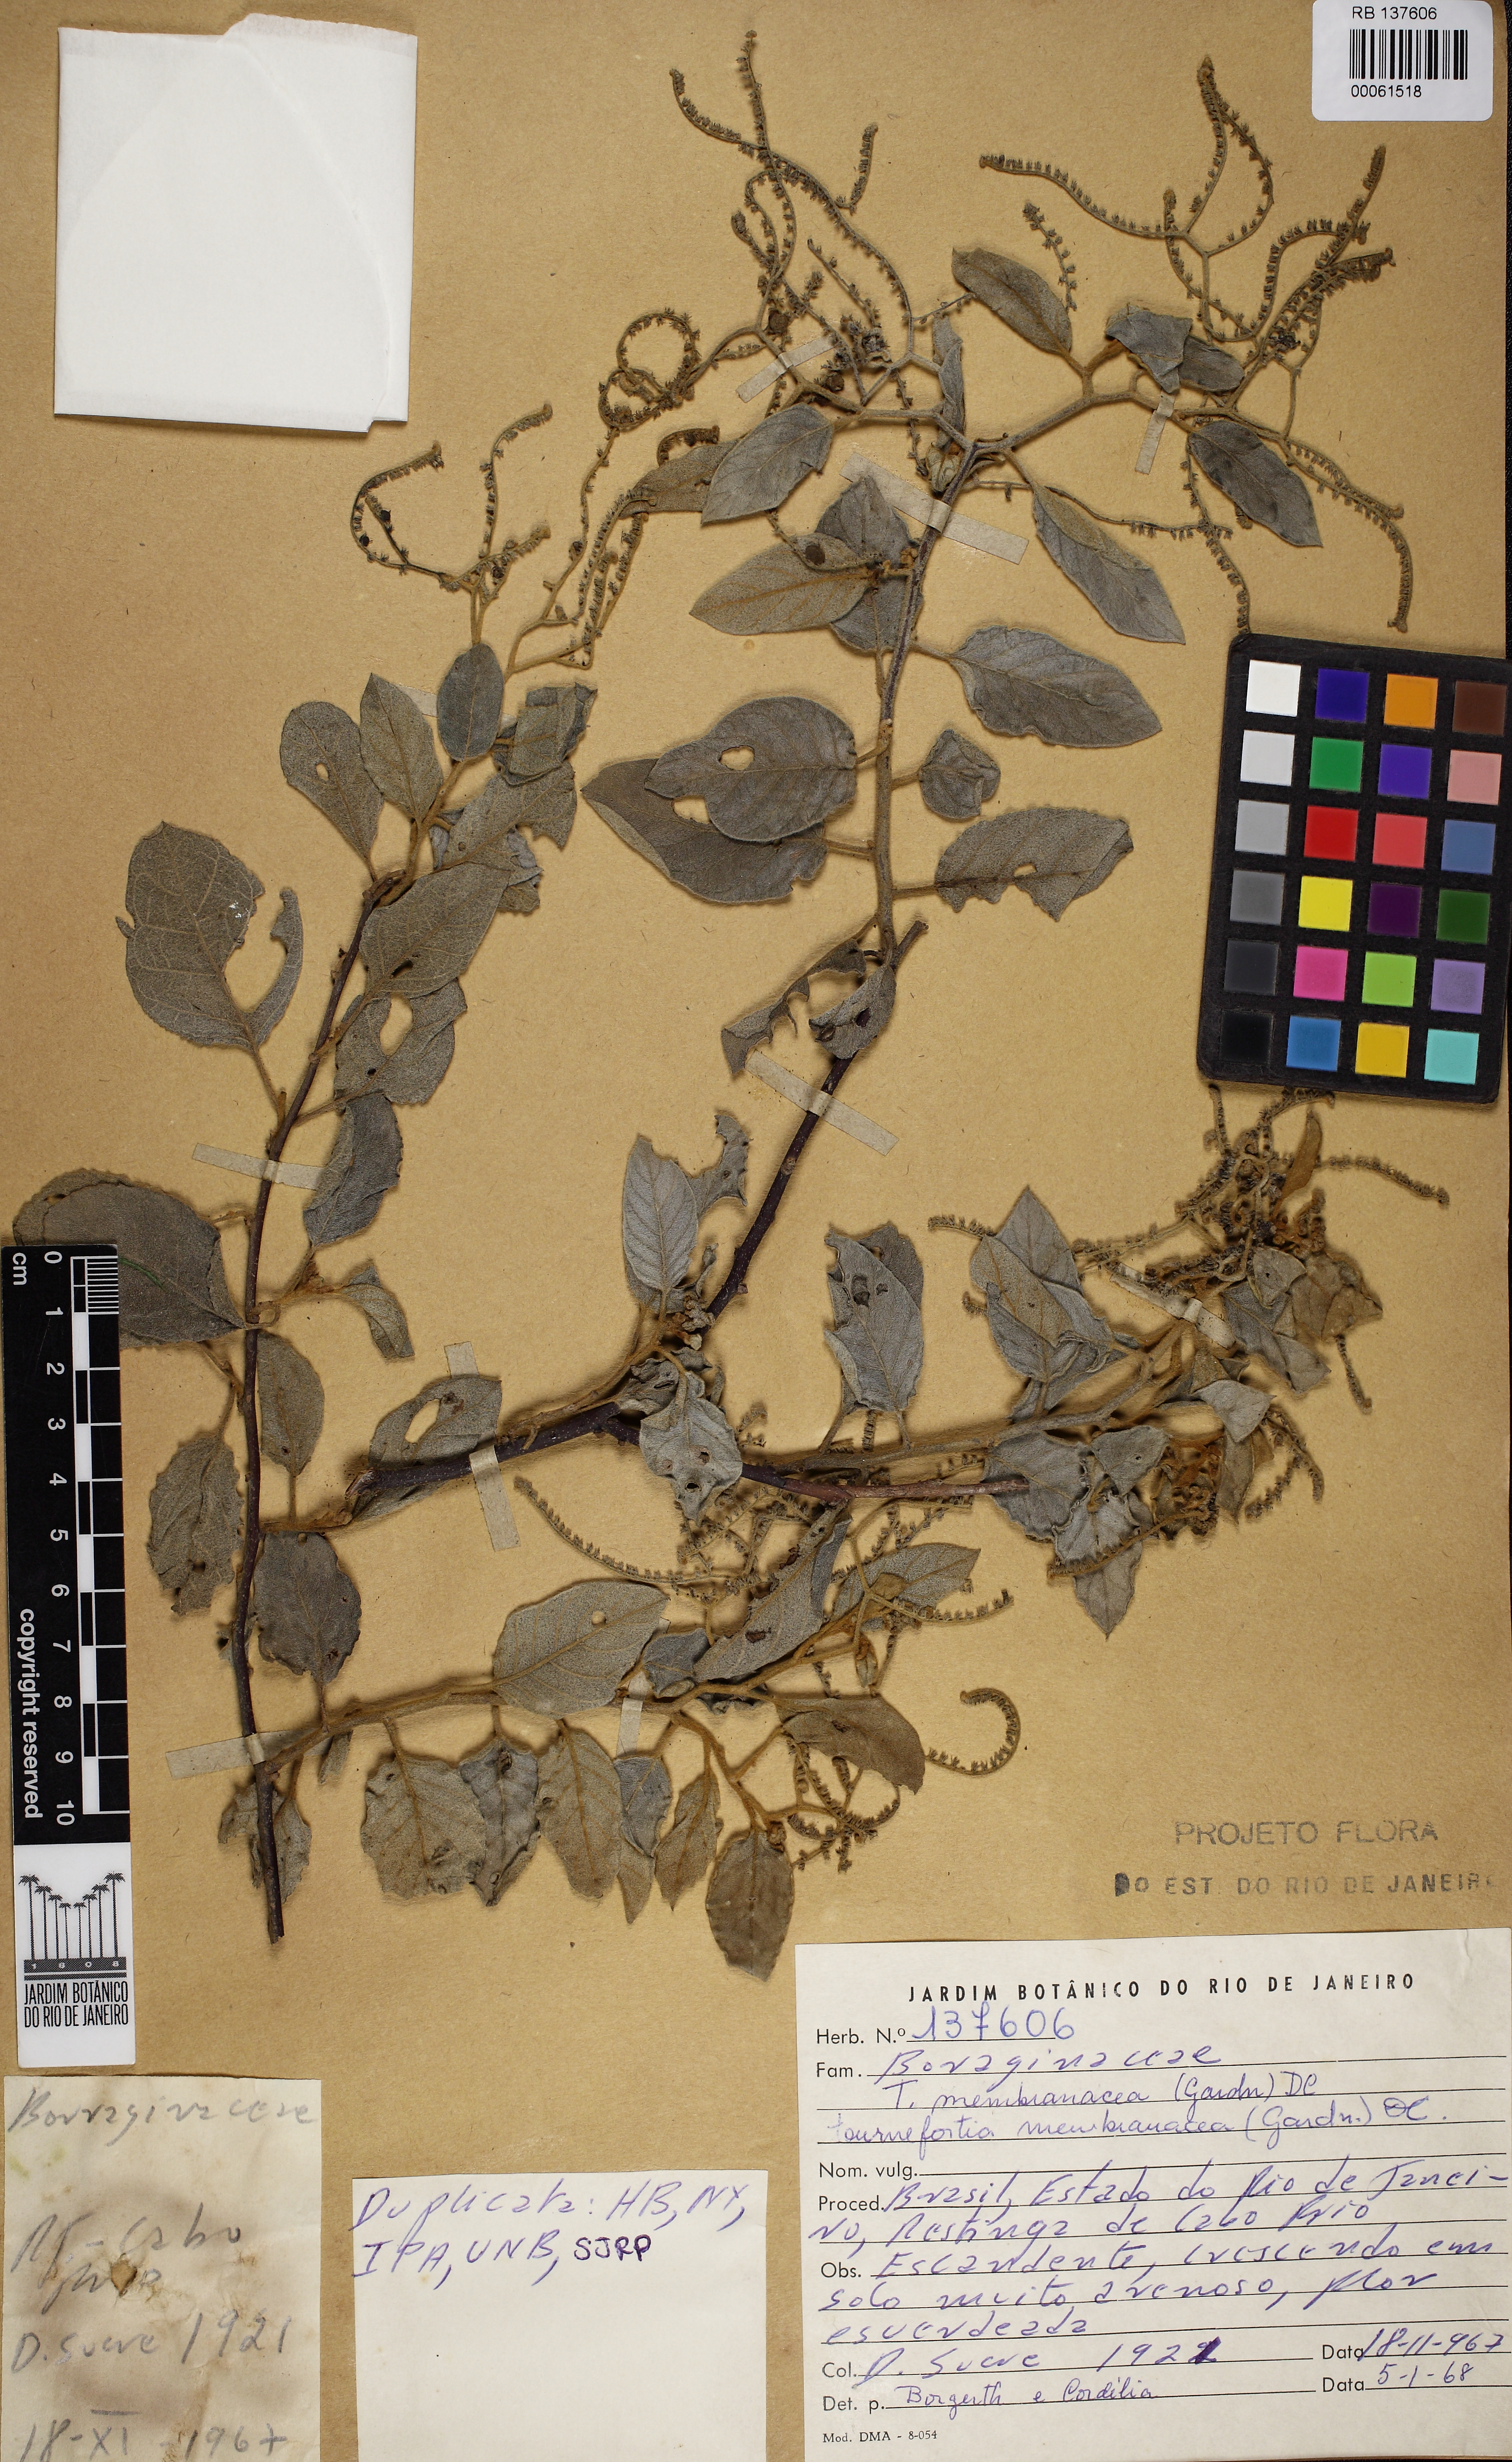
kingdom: Plantae
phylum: Tracheophyta
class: Magnoliopsida
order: Boraginales
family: Heliotropiaceae
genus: Myriopus
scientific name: Myriopus membranaceus
